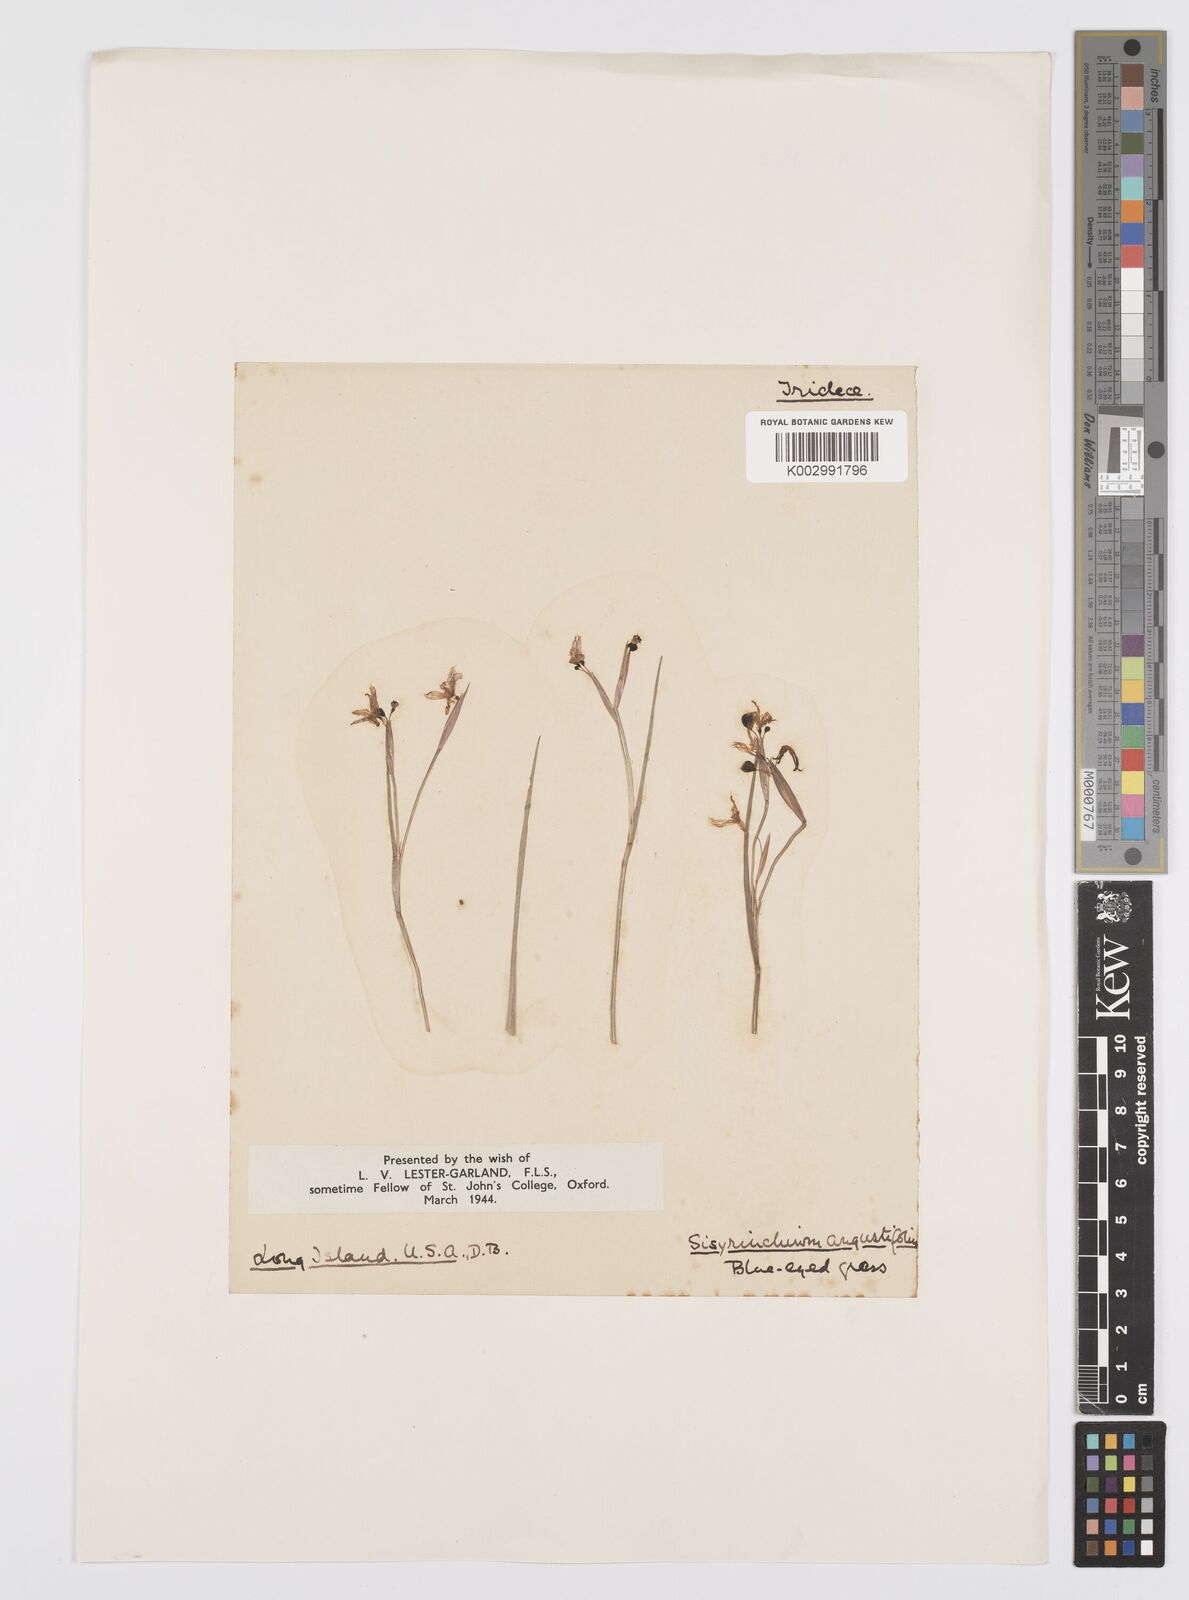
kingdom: Plantae
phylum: Tracheophyta
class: Liliopsida
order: Asparagales
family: Iridaceae
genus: Sisyrinchium
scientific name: Sisyrinchium bermudiana
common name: Blue-eyed-grass
